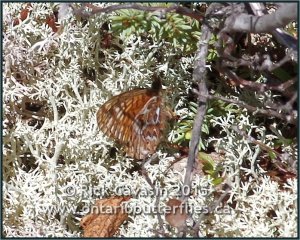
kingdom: Animalia
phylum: Arthropoda
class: Insecta
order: Lepidoptera
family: Nymphalidae
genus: Boloria
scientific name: Boloria freija
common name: Freija Fritillary
